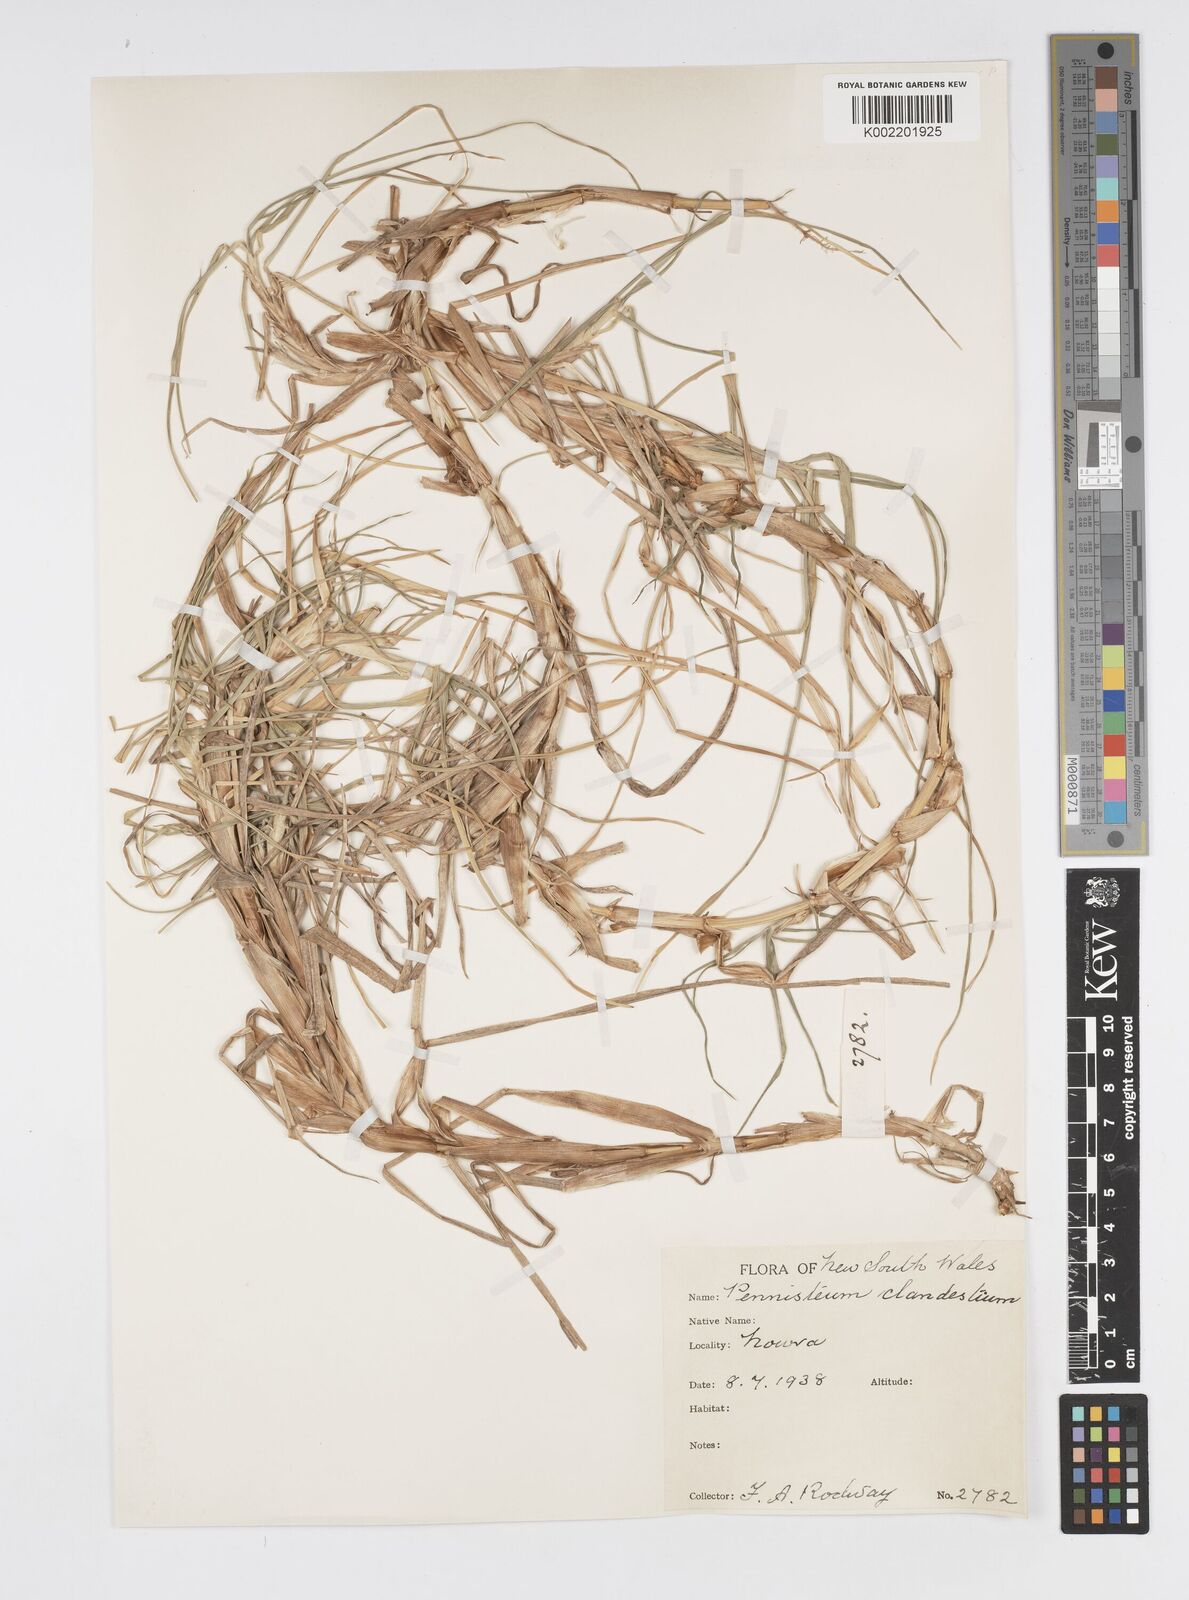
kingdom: Plantae
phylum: Tracheophyta
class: Liliopsida
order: Poales
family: Poaceae
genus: Cenchrus
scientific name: Cenchrus clandestinus
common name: Kikuyugrass
